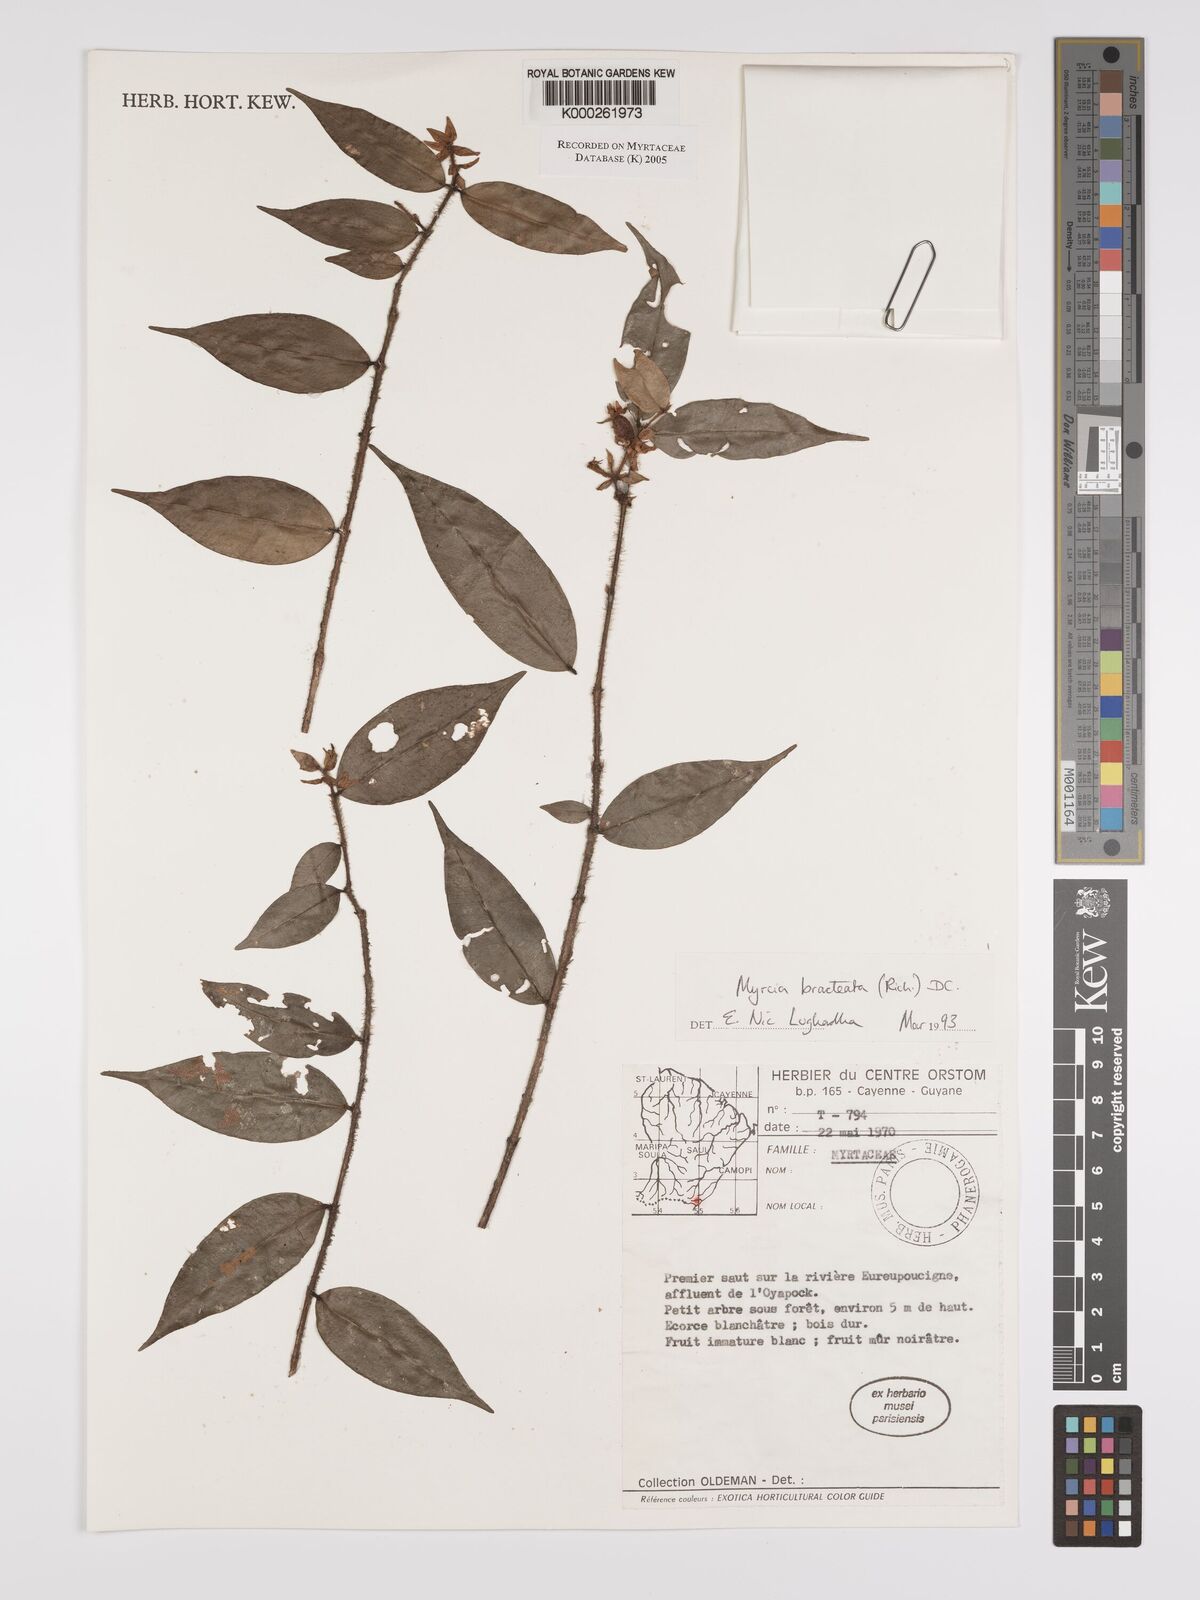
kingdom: Plantae
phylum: Tracheophyta
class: Magnoliopsida
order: Myrtales
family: Myrtaceae
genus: Myrcia
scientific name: Myrcia bracteata
